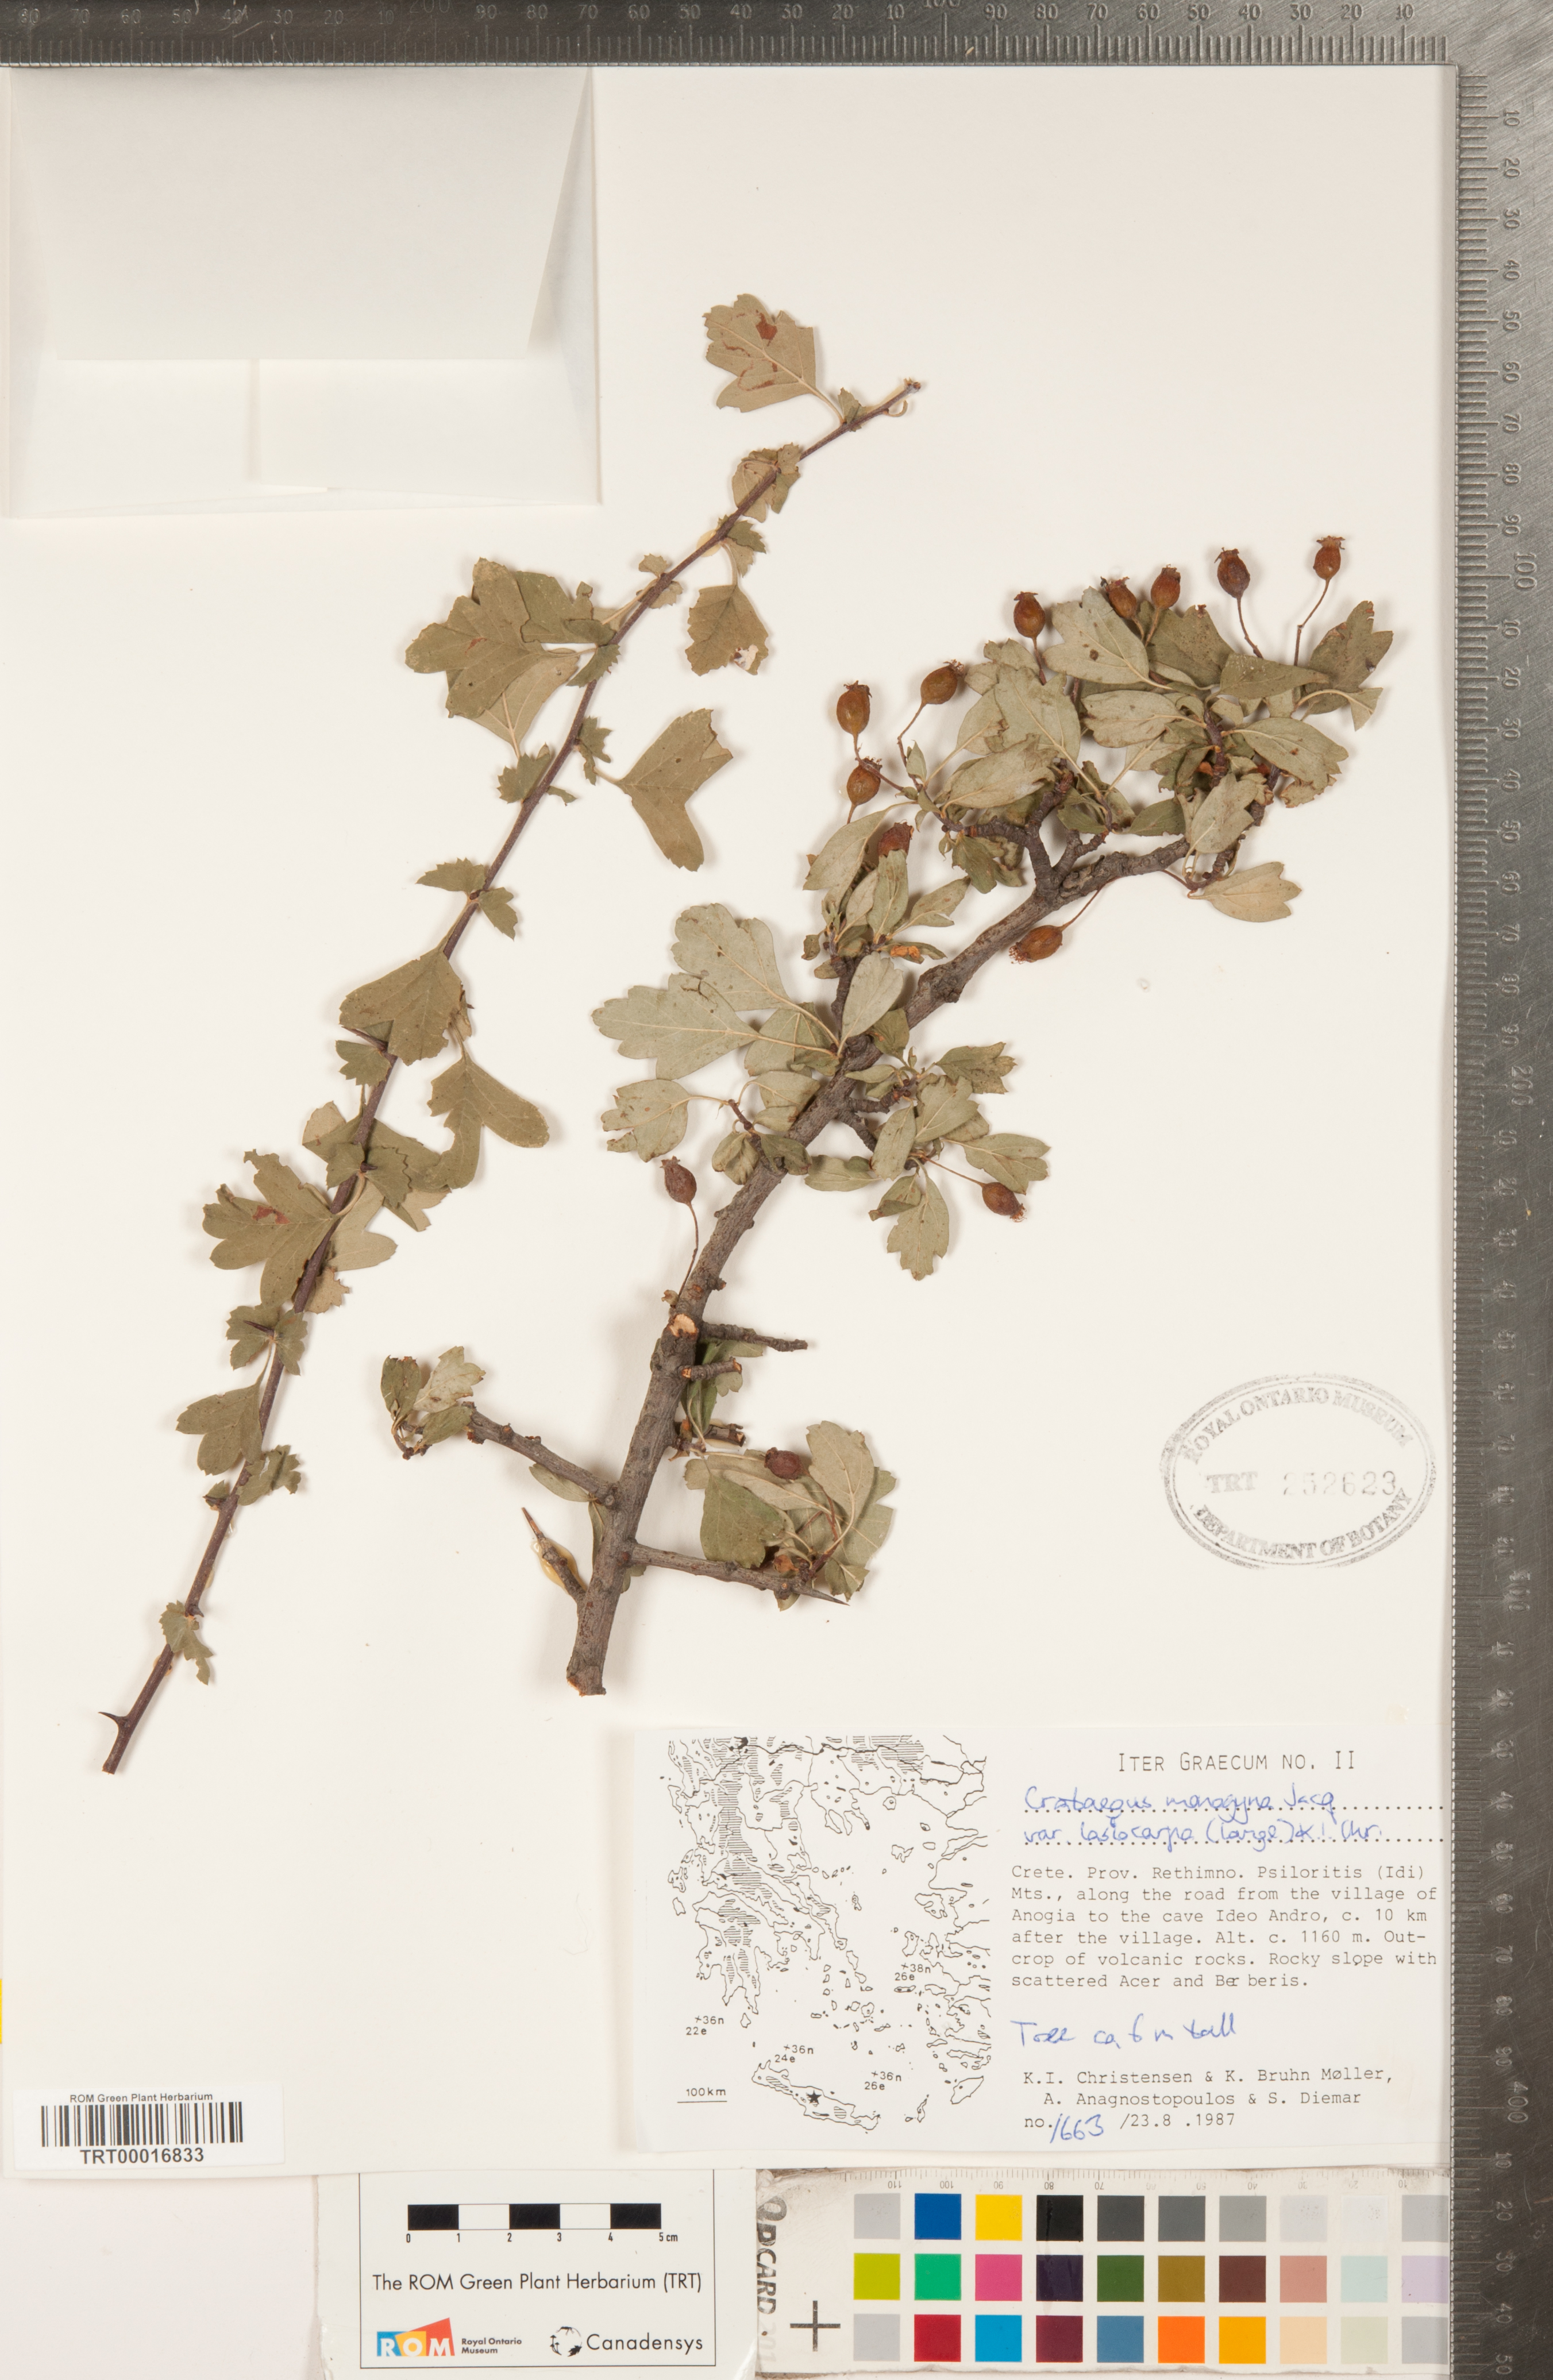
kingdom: Plantae
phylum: Tracheophyta
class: Magnoliopsida
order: Rosales
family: Rosaceae
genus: Crataegus
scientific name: Crataegus laciniata
